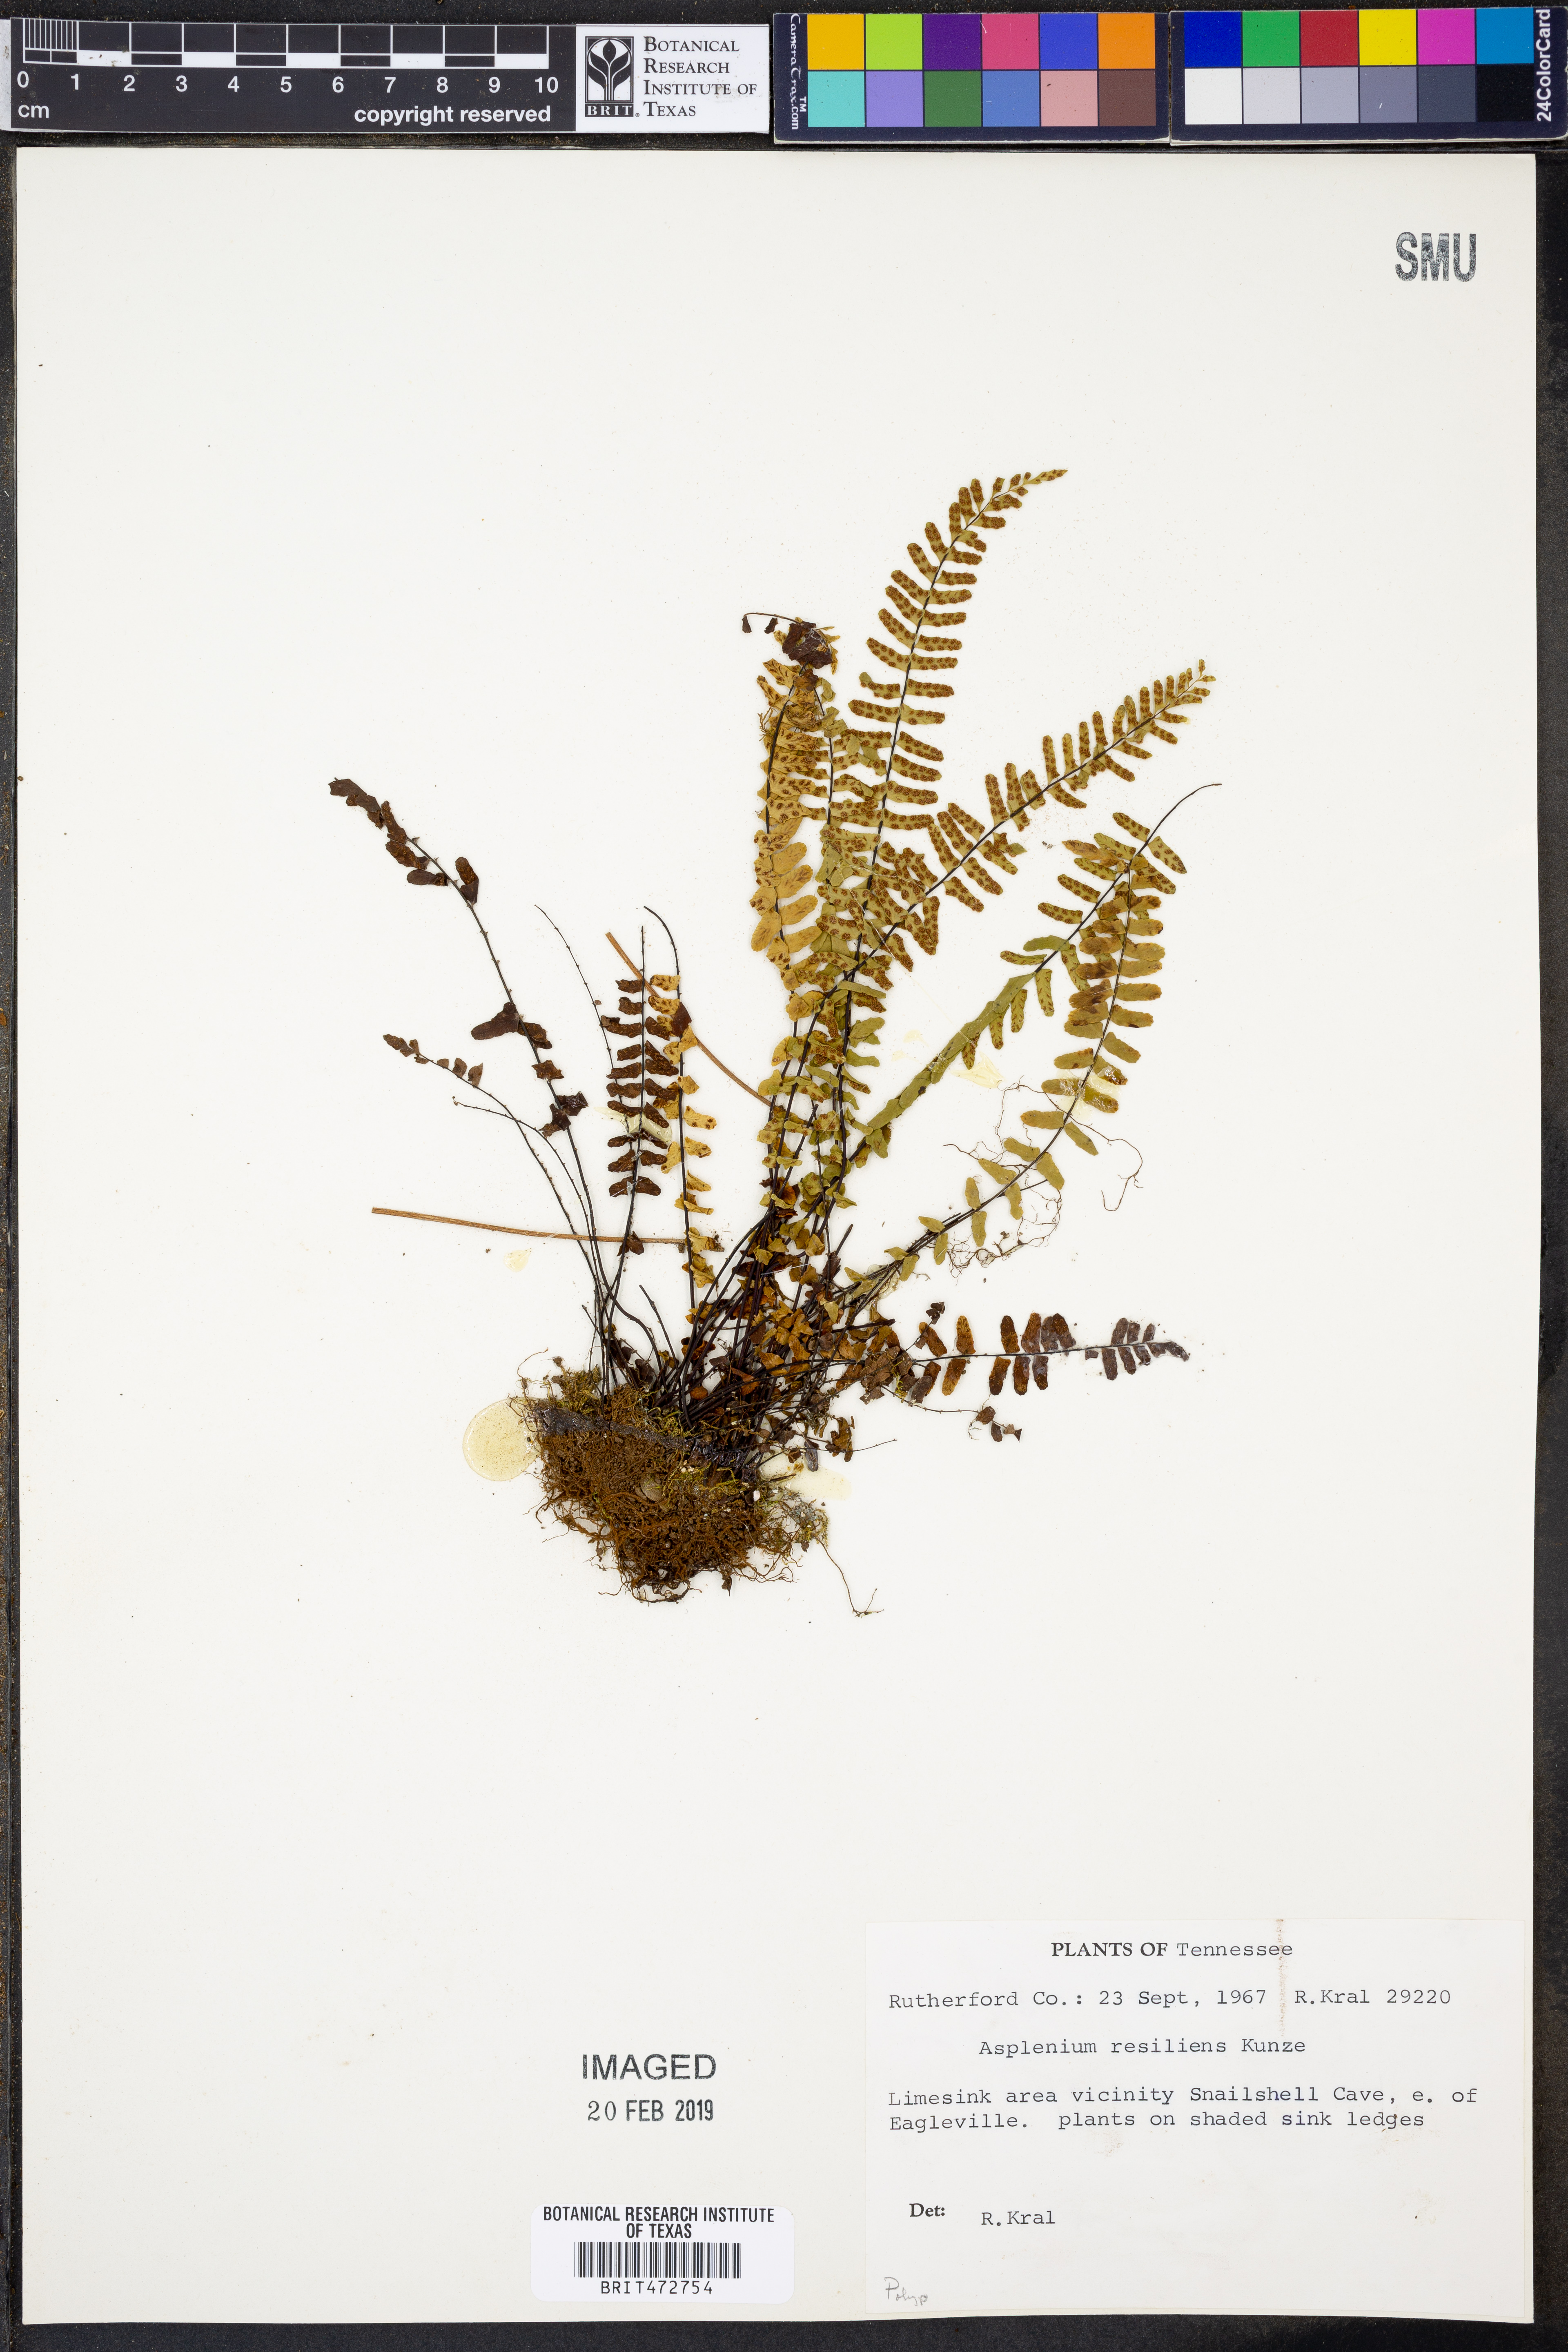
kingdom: Plantae
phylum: Tracheophyta
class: Polypodiopsida
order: Polypodiales
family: Aspleniaceae
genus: Asplenium
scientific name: Asplenium resiliens
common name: Blackstem spleenwort
